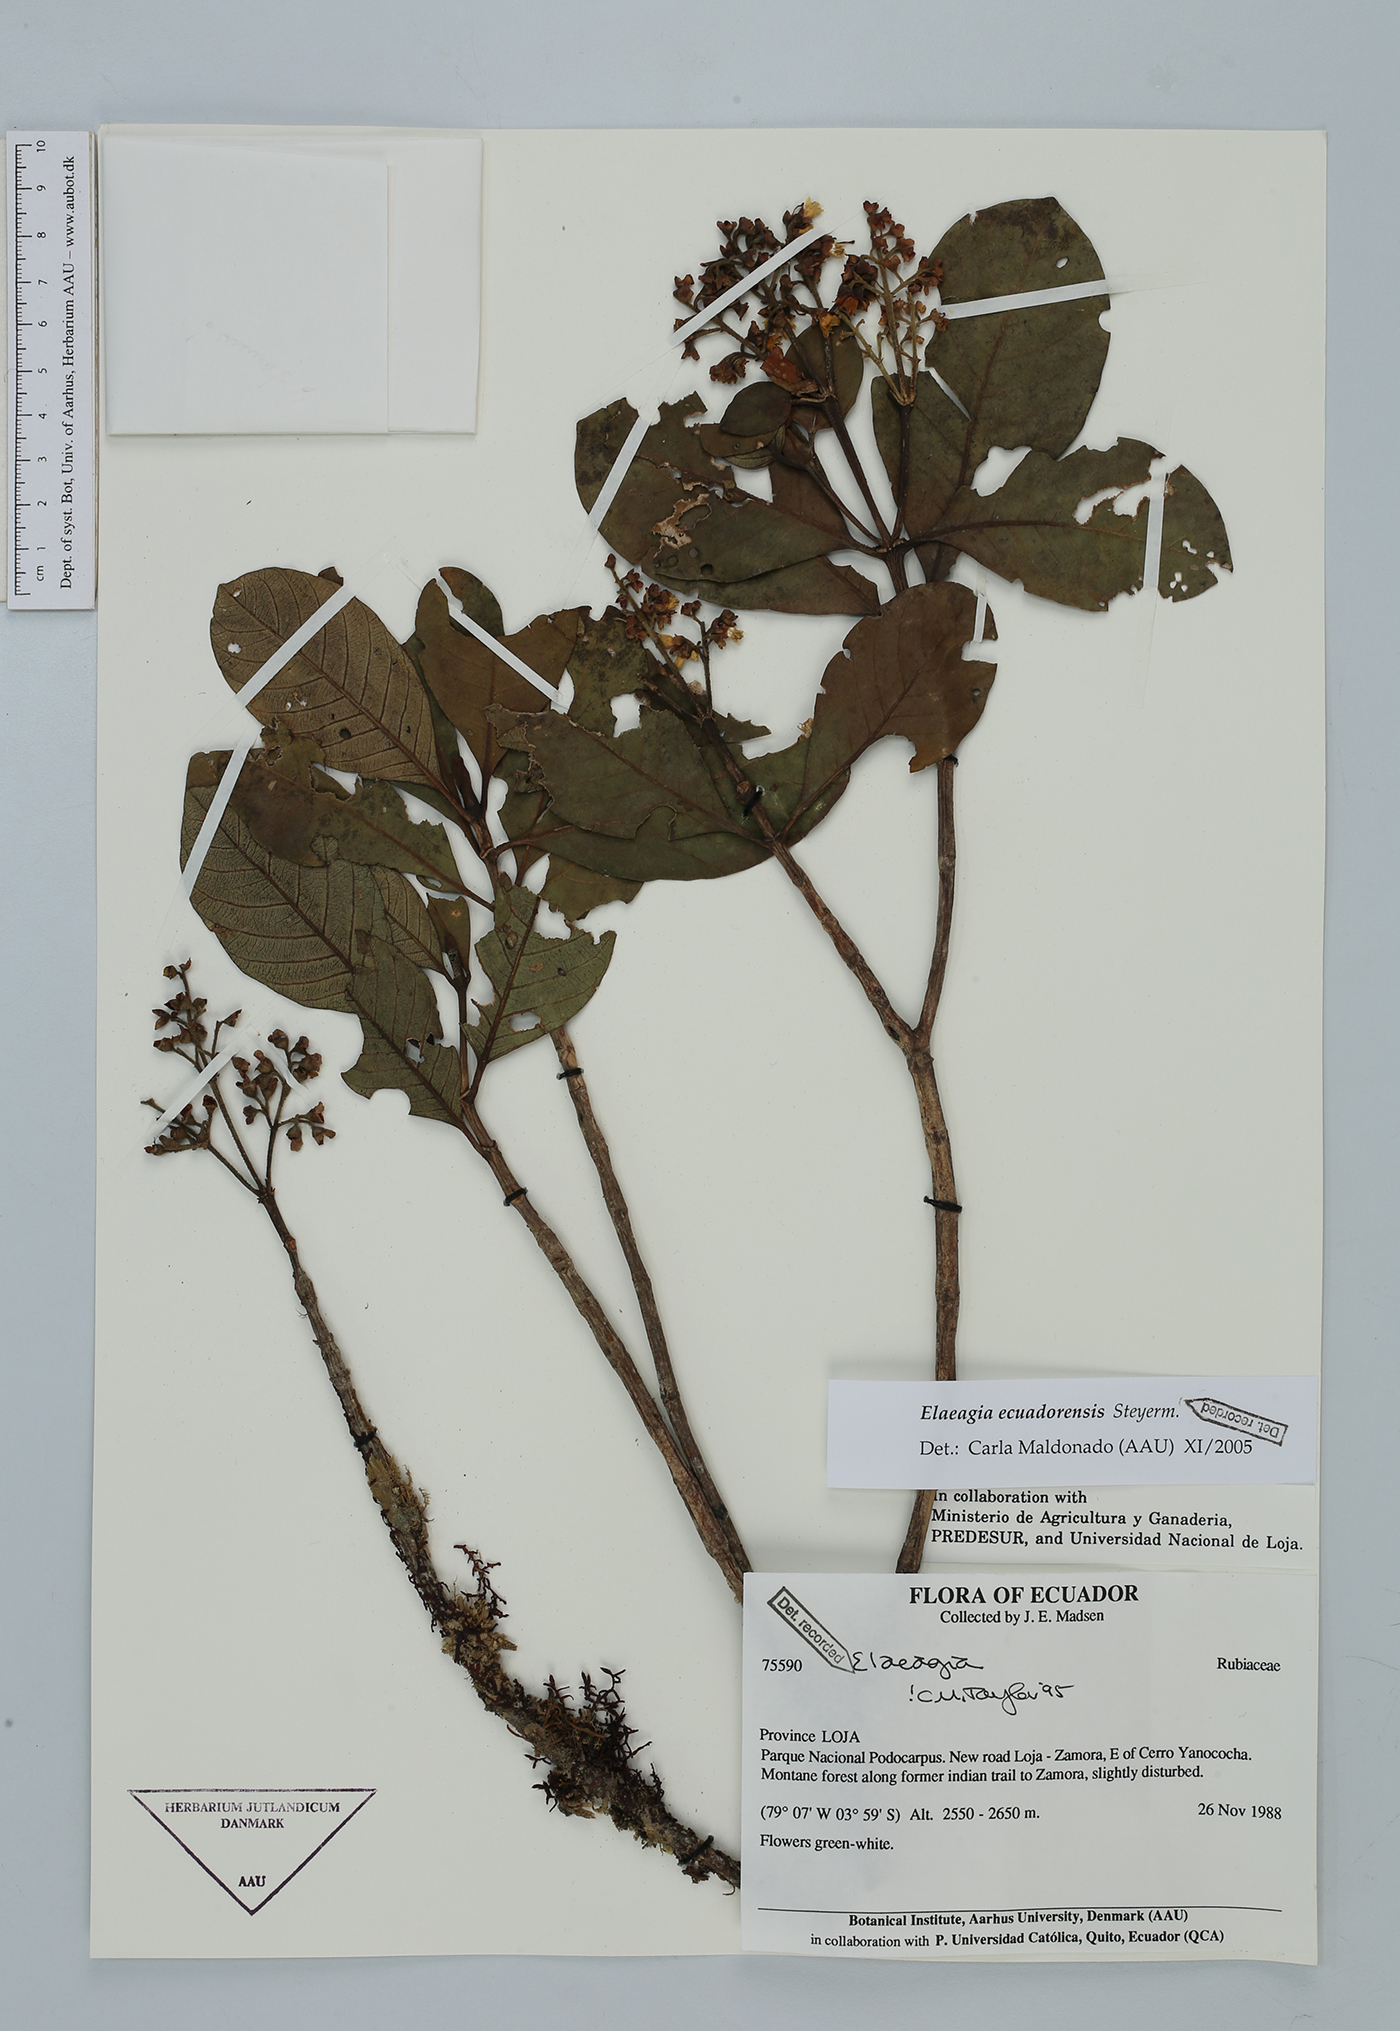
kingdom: Plantae
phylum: Tracheophyta
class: Magnoliopsida
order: Gentianales
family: Rubiaceae
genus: Elaeagia
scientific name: Elaeagia ecuadorensis
